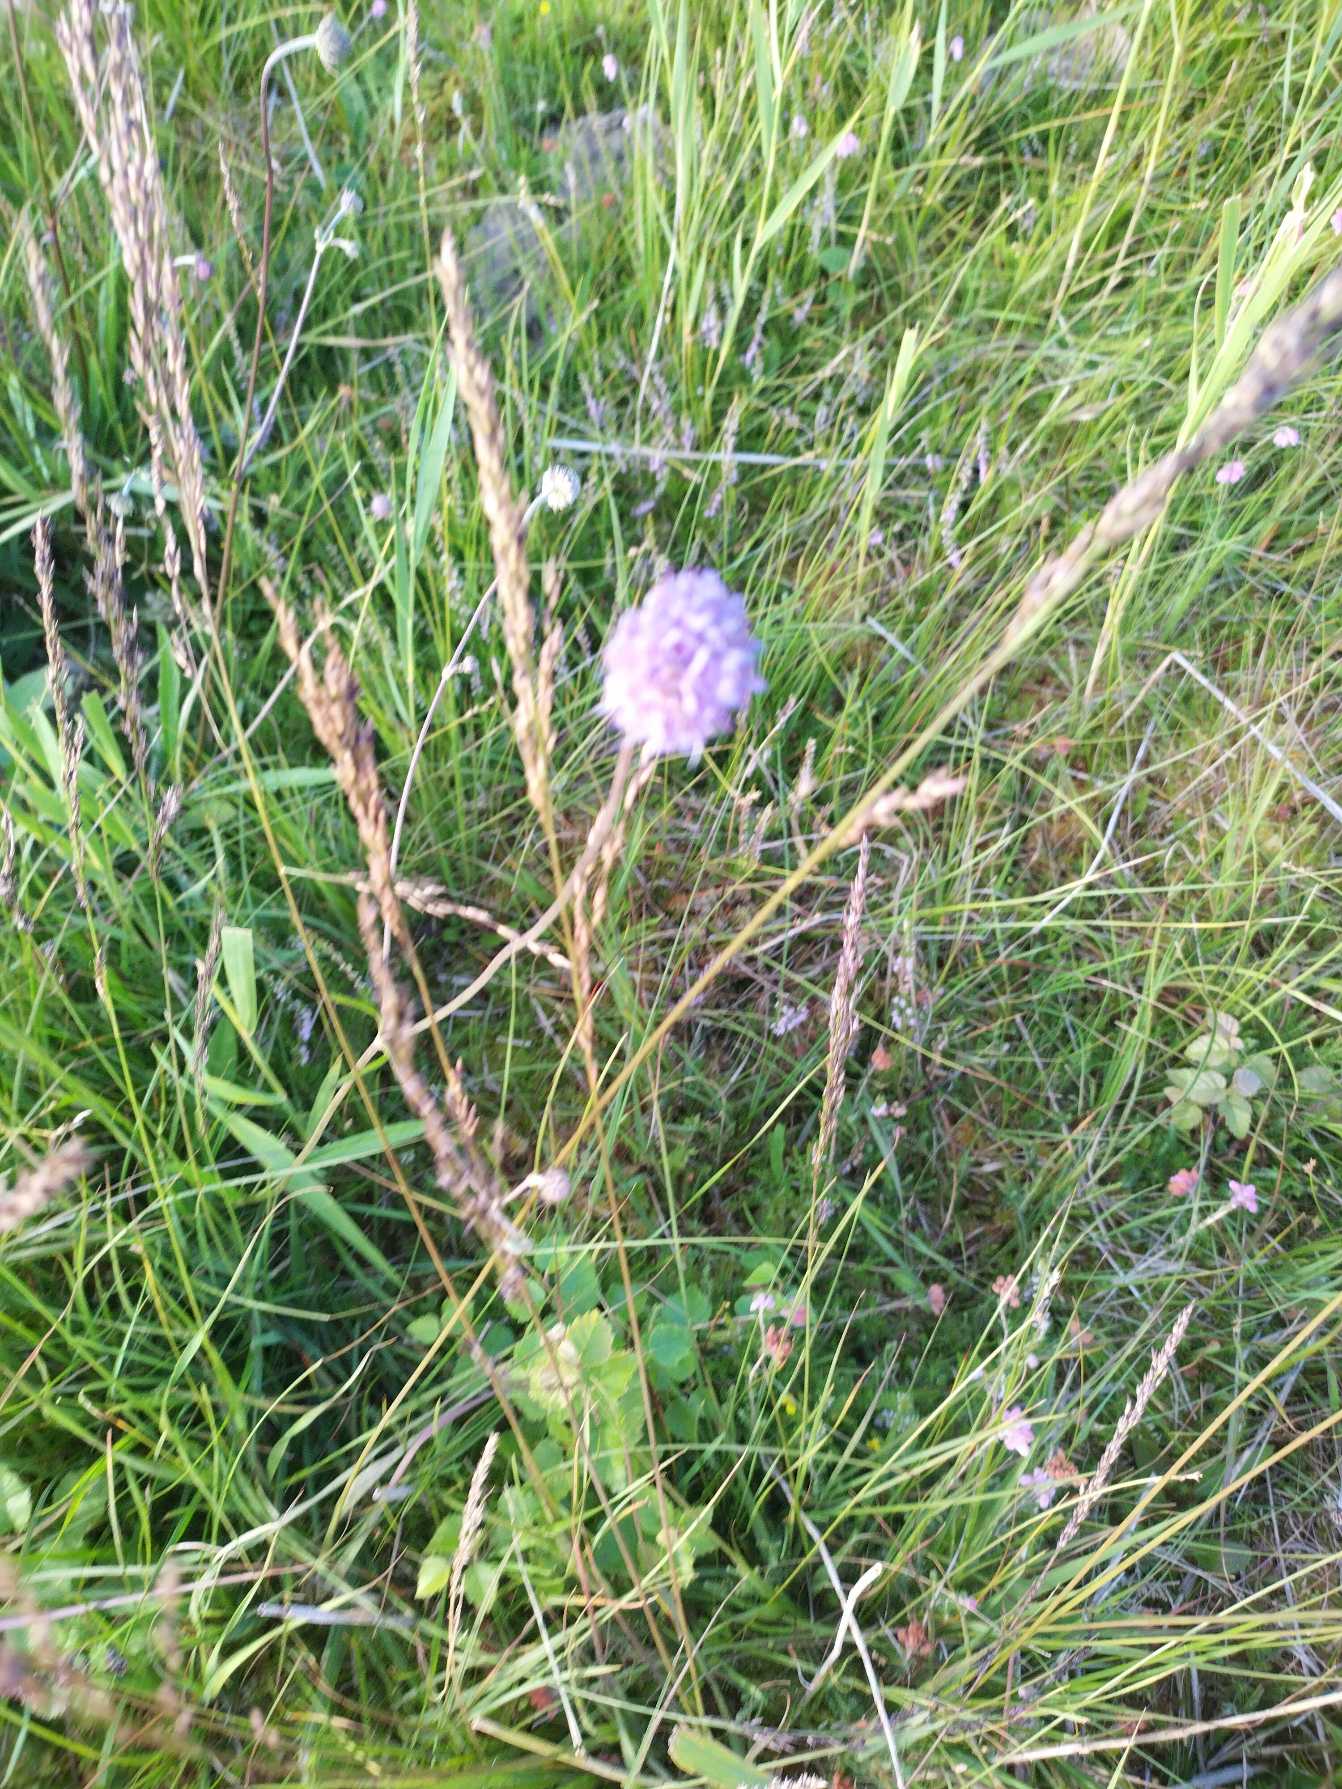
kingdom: Plantae
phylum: Tracheophyta
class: Magnoliopsida
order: Dipsacales
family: Caprifoliaceae
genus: Succisa
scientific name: Succisa pratensis
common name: Djævelsbid
